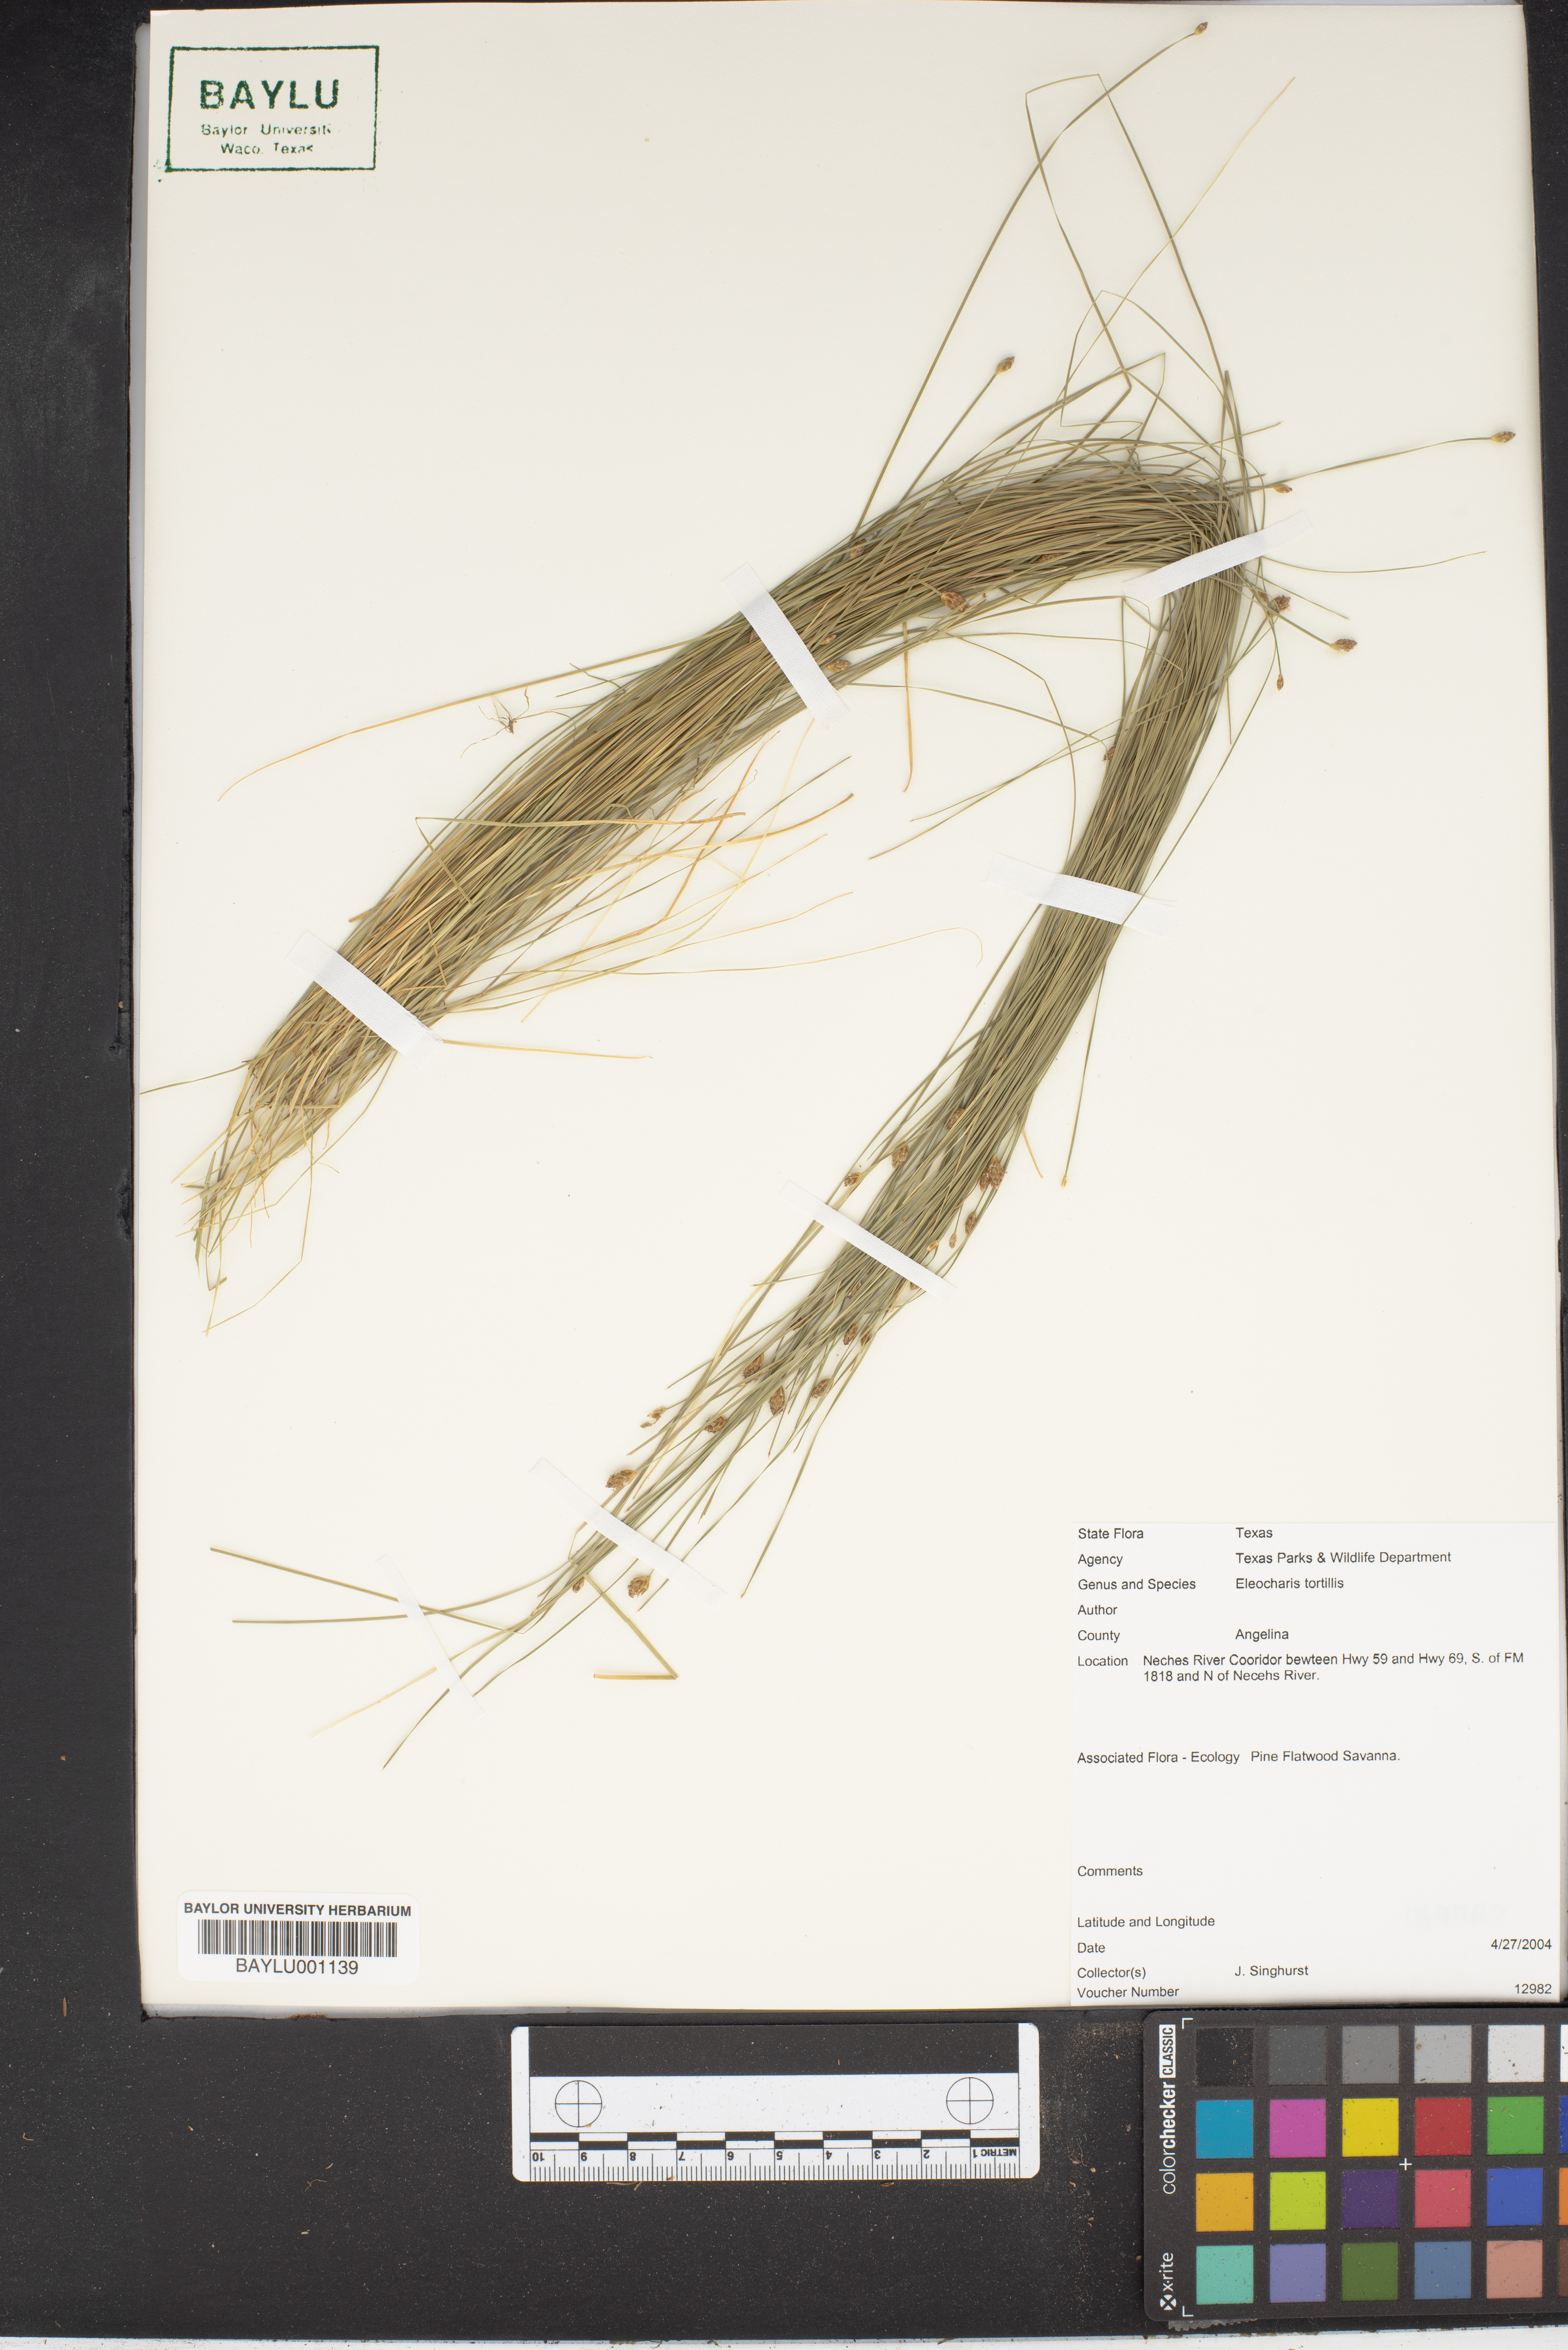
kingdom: Plantae
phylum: Tracheophyta
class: Liliopsida
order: Poales
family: Cyperaceae
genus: Eleocharis
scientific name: Eleocharis tortilis
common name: Twisted spike sedge
